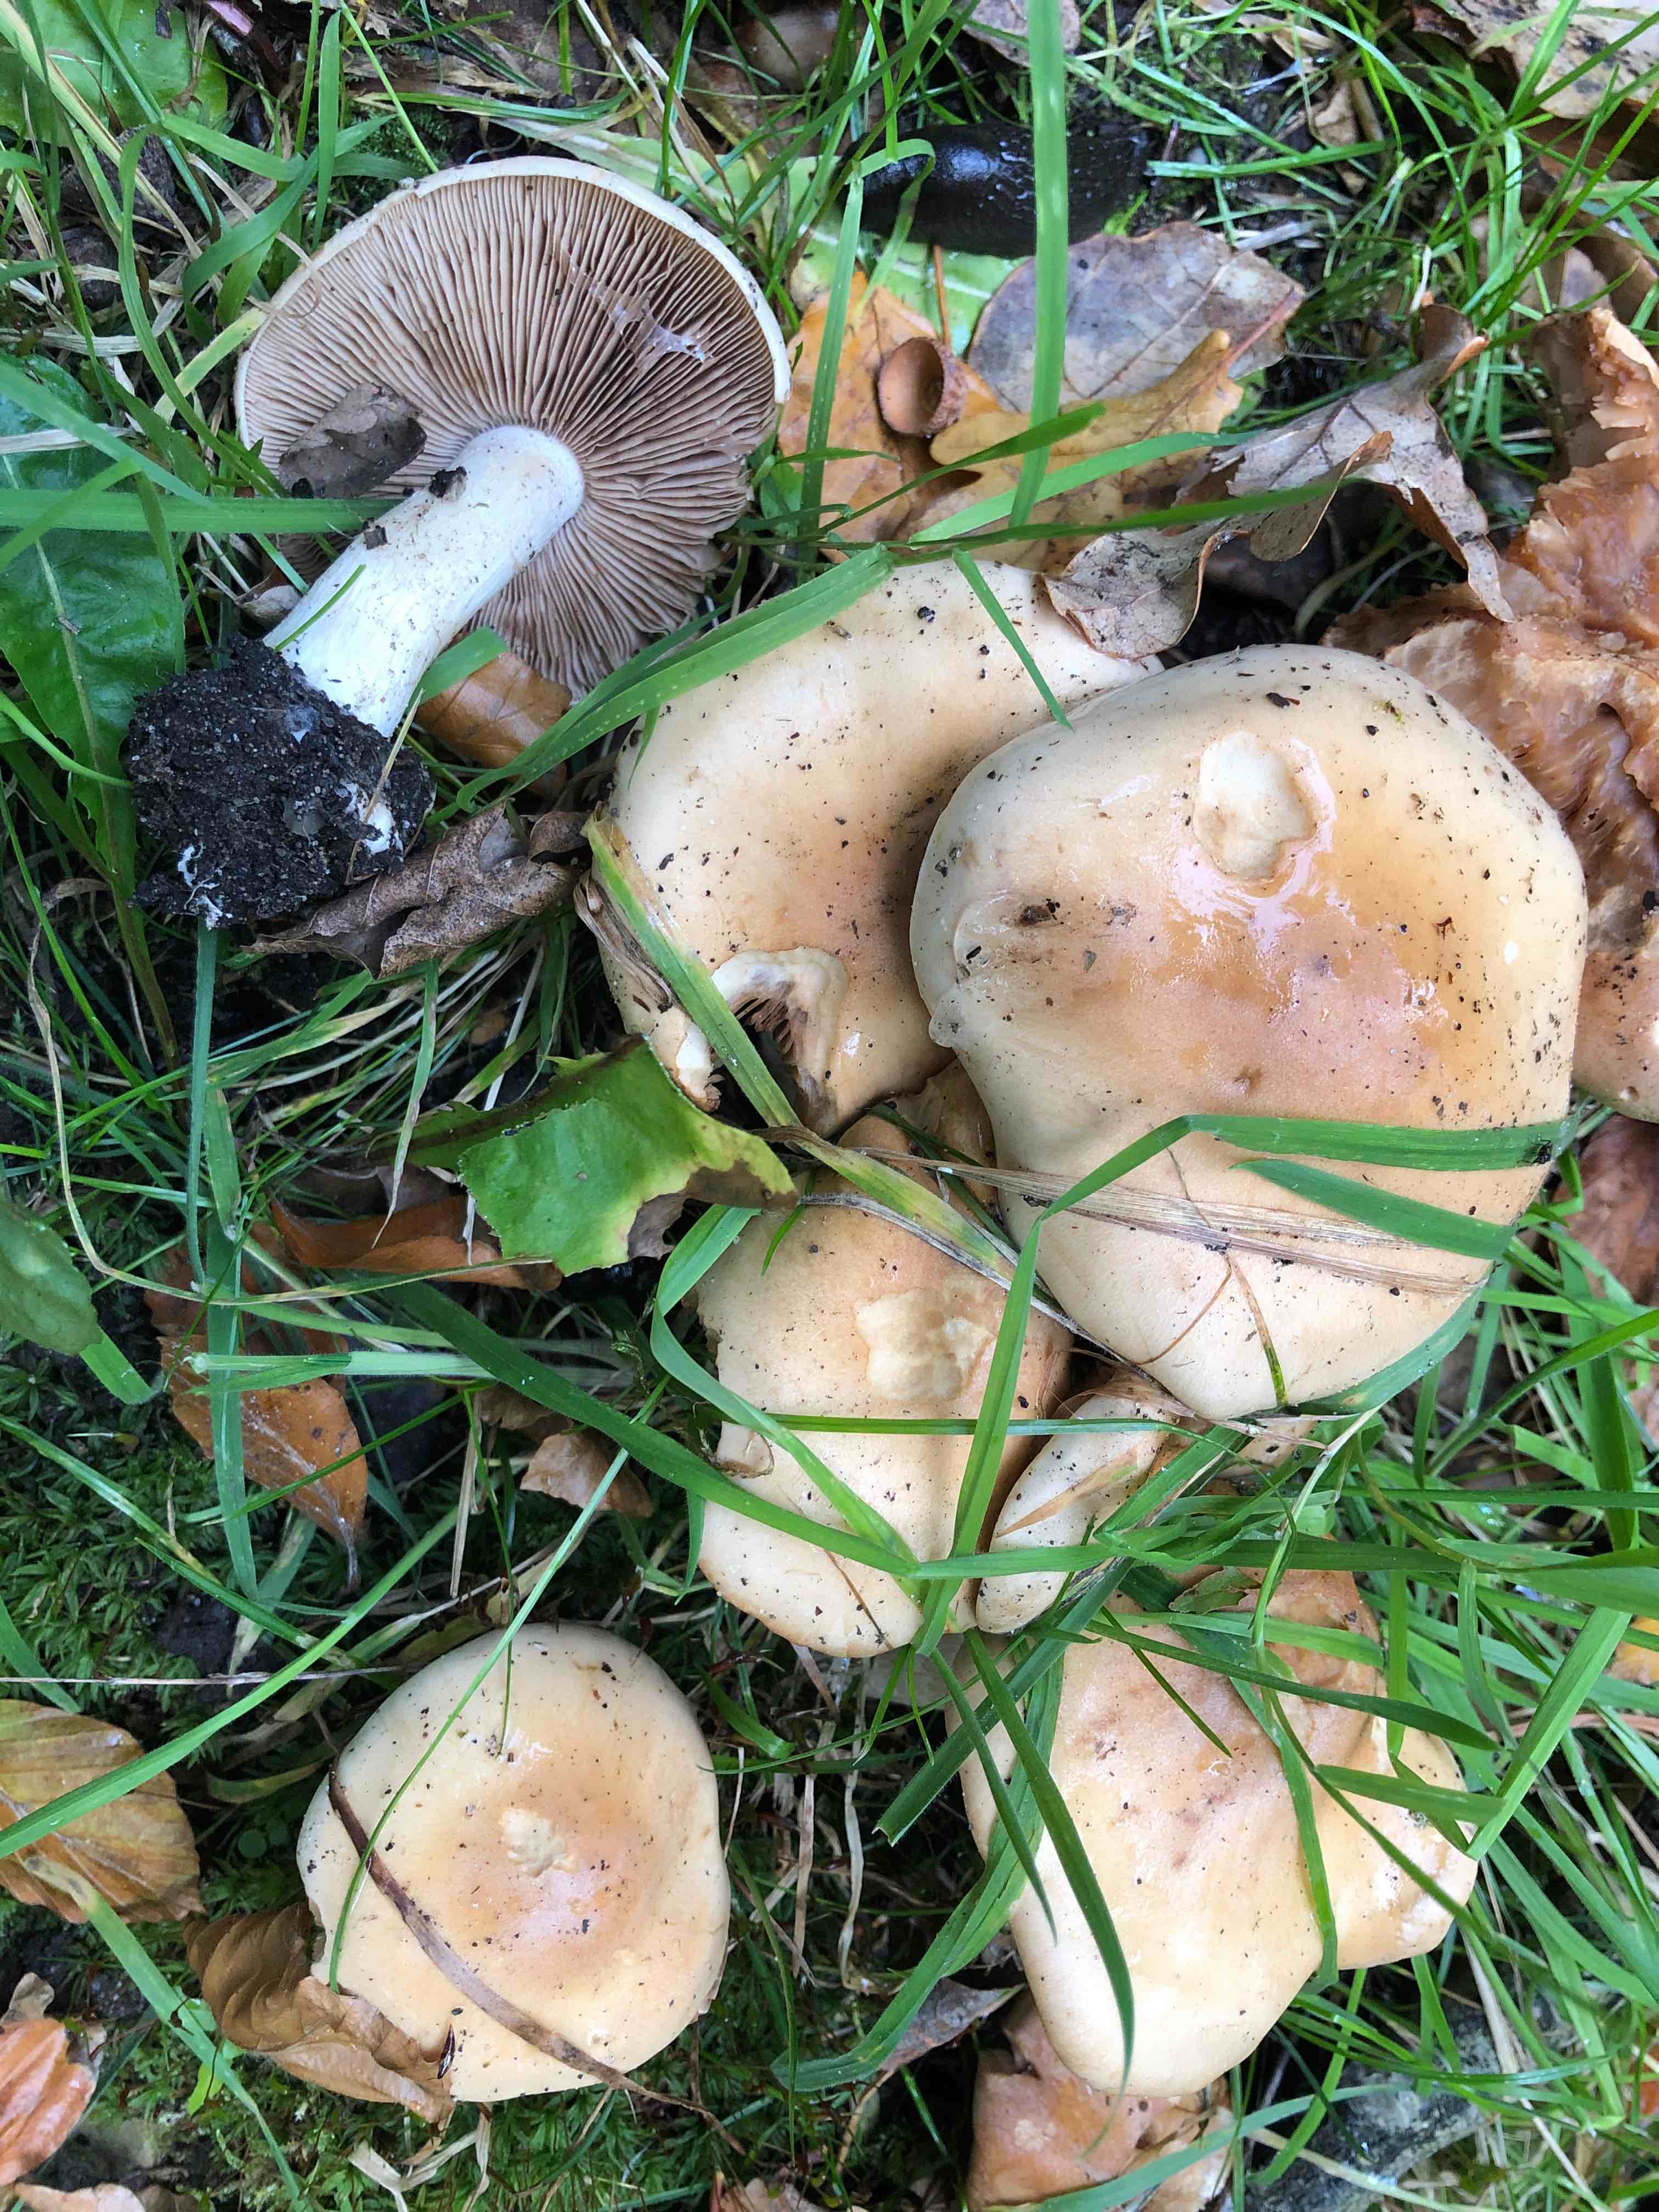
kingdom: Fungi
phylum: Basidiomycota
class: Agaricomycetes
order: Agaricales
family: Hymenogastraceae
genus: Hebeloma
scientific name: Hebeloma sinapizans
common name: ræddike-tåreblad
